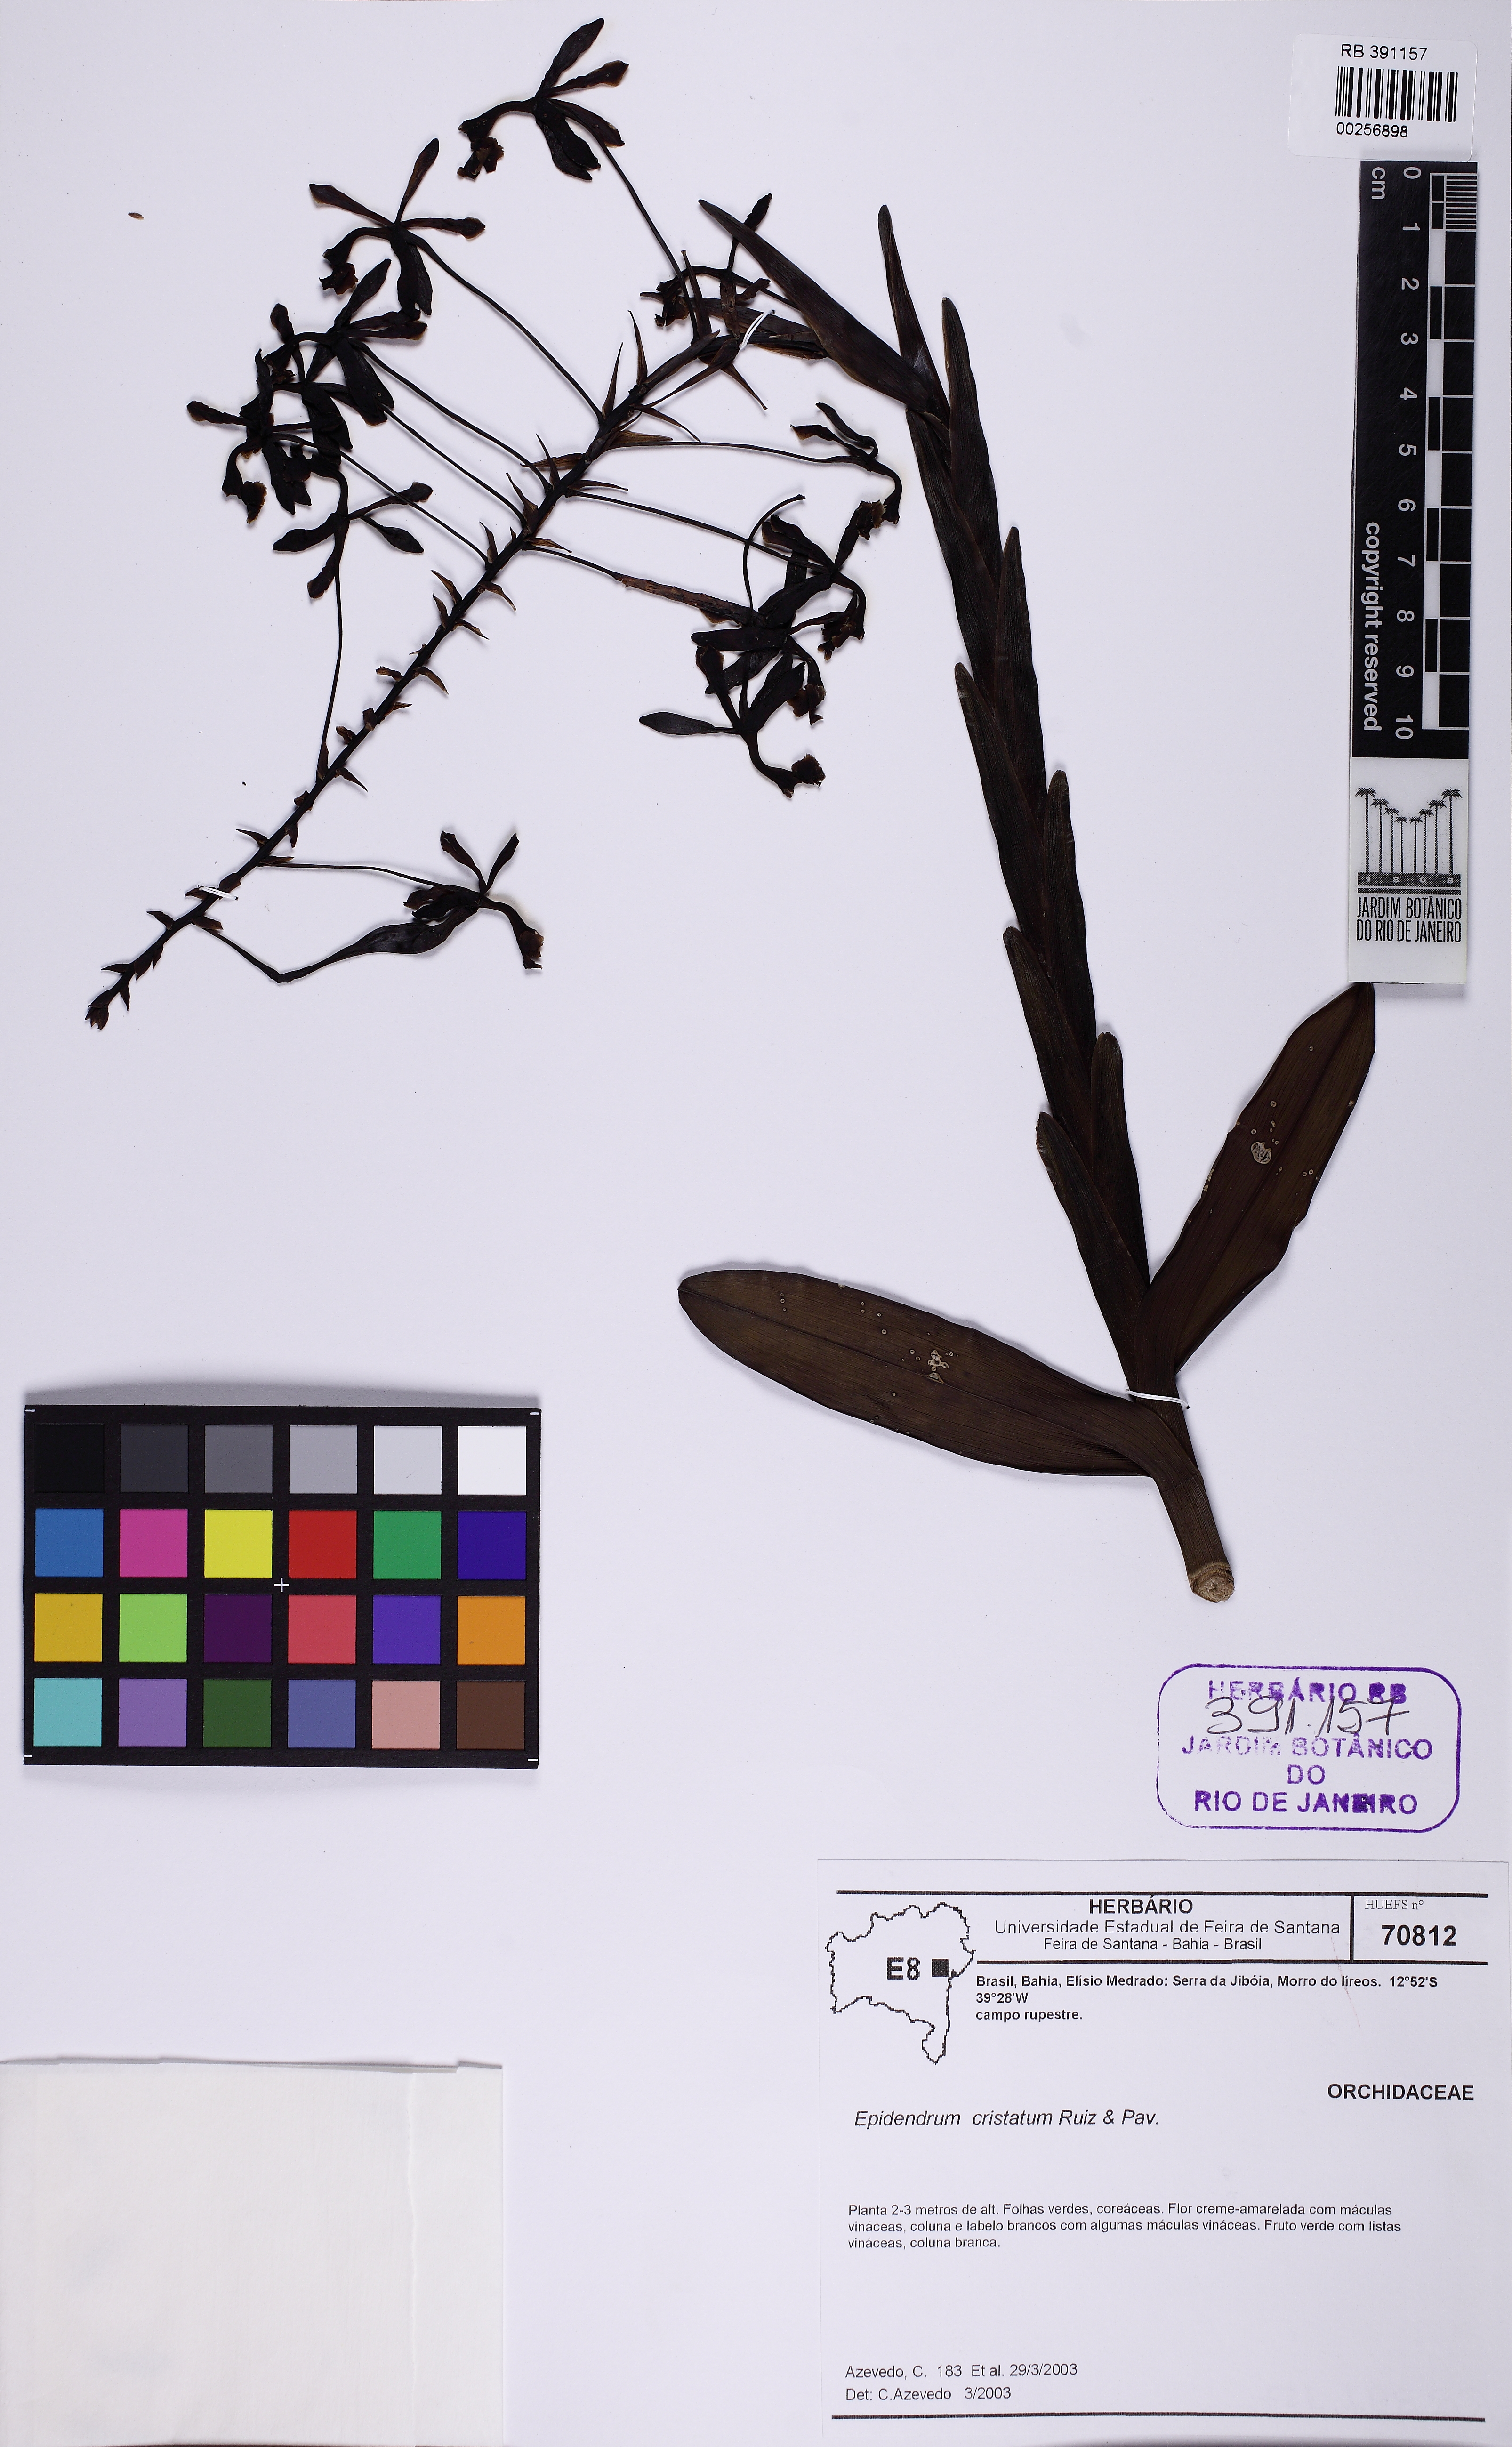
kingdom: Plantae
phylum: Tracheophyta
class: Liliopsida
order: Asparagales
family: Orchidaceae
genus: Epidendrum
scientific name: Epidendrum cristatum
